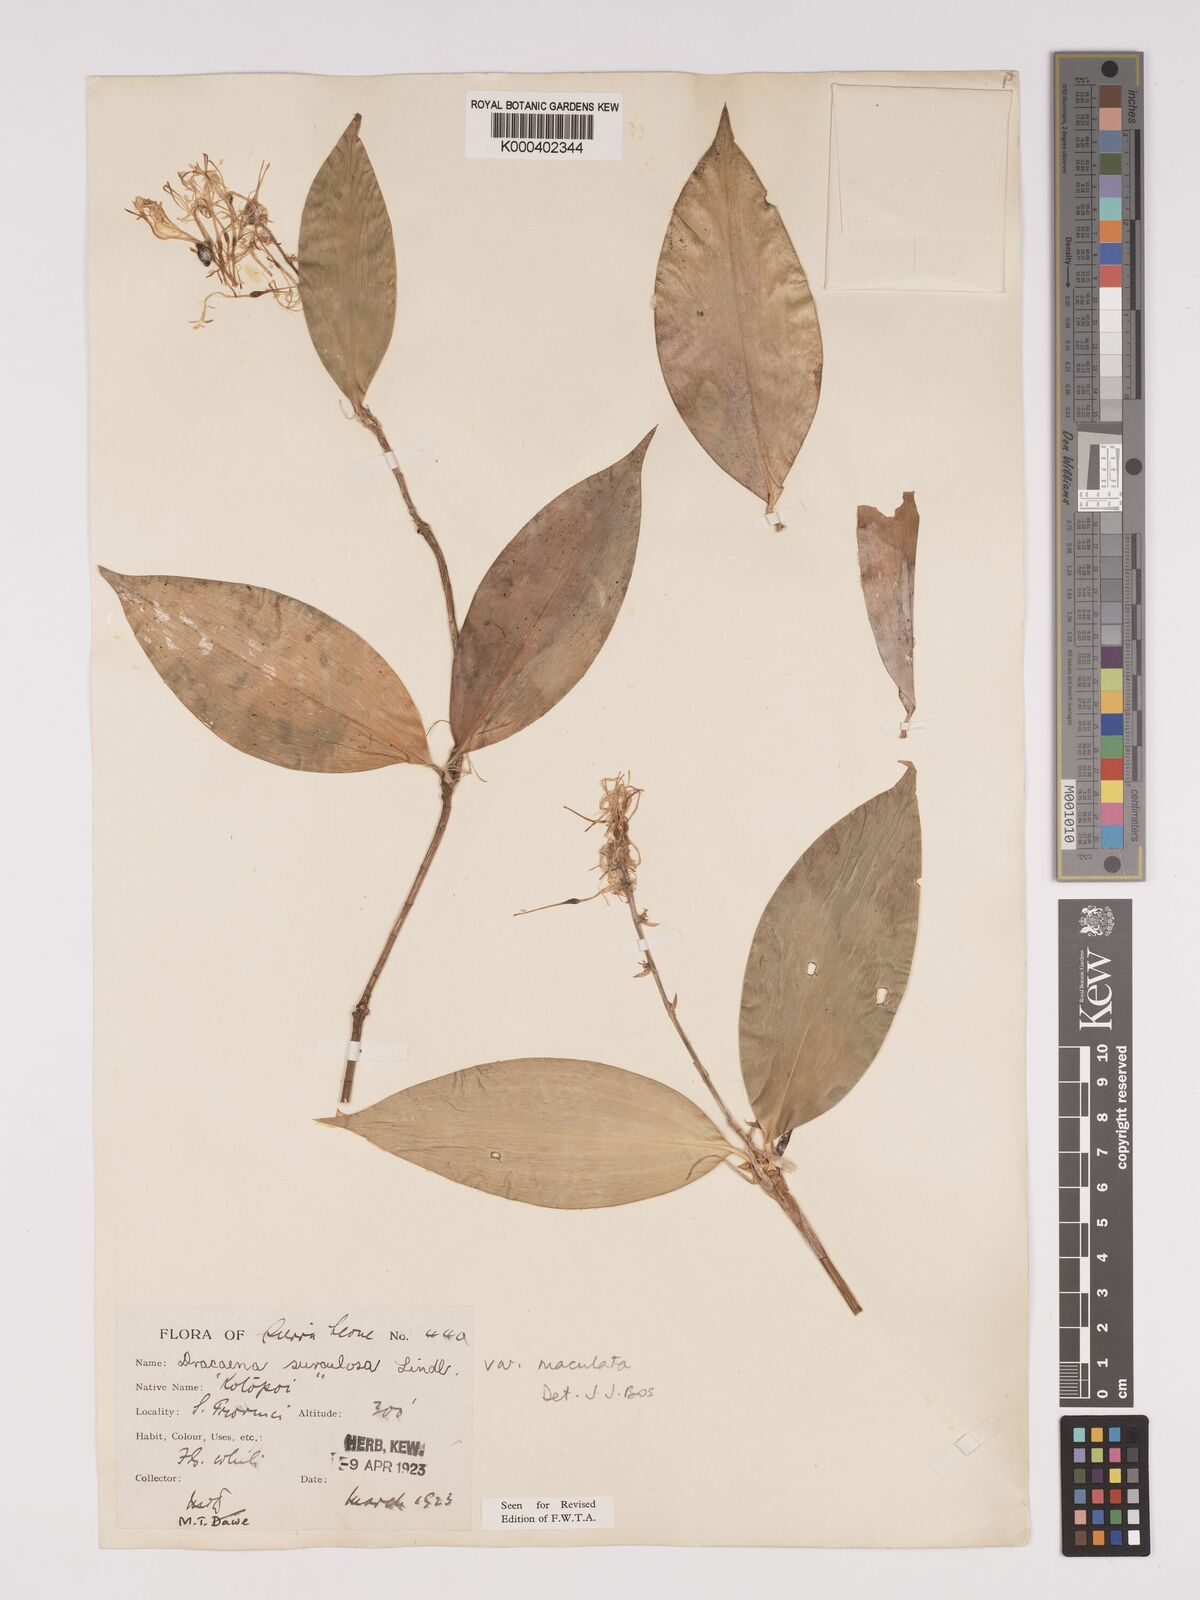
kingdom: Plantae
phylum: Tracheophyta
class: Liliopsida
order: Asparagales
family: Asparagaceae
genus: Dracaena
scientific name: Dracaena surculosa
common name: Spotted dracaena
